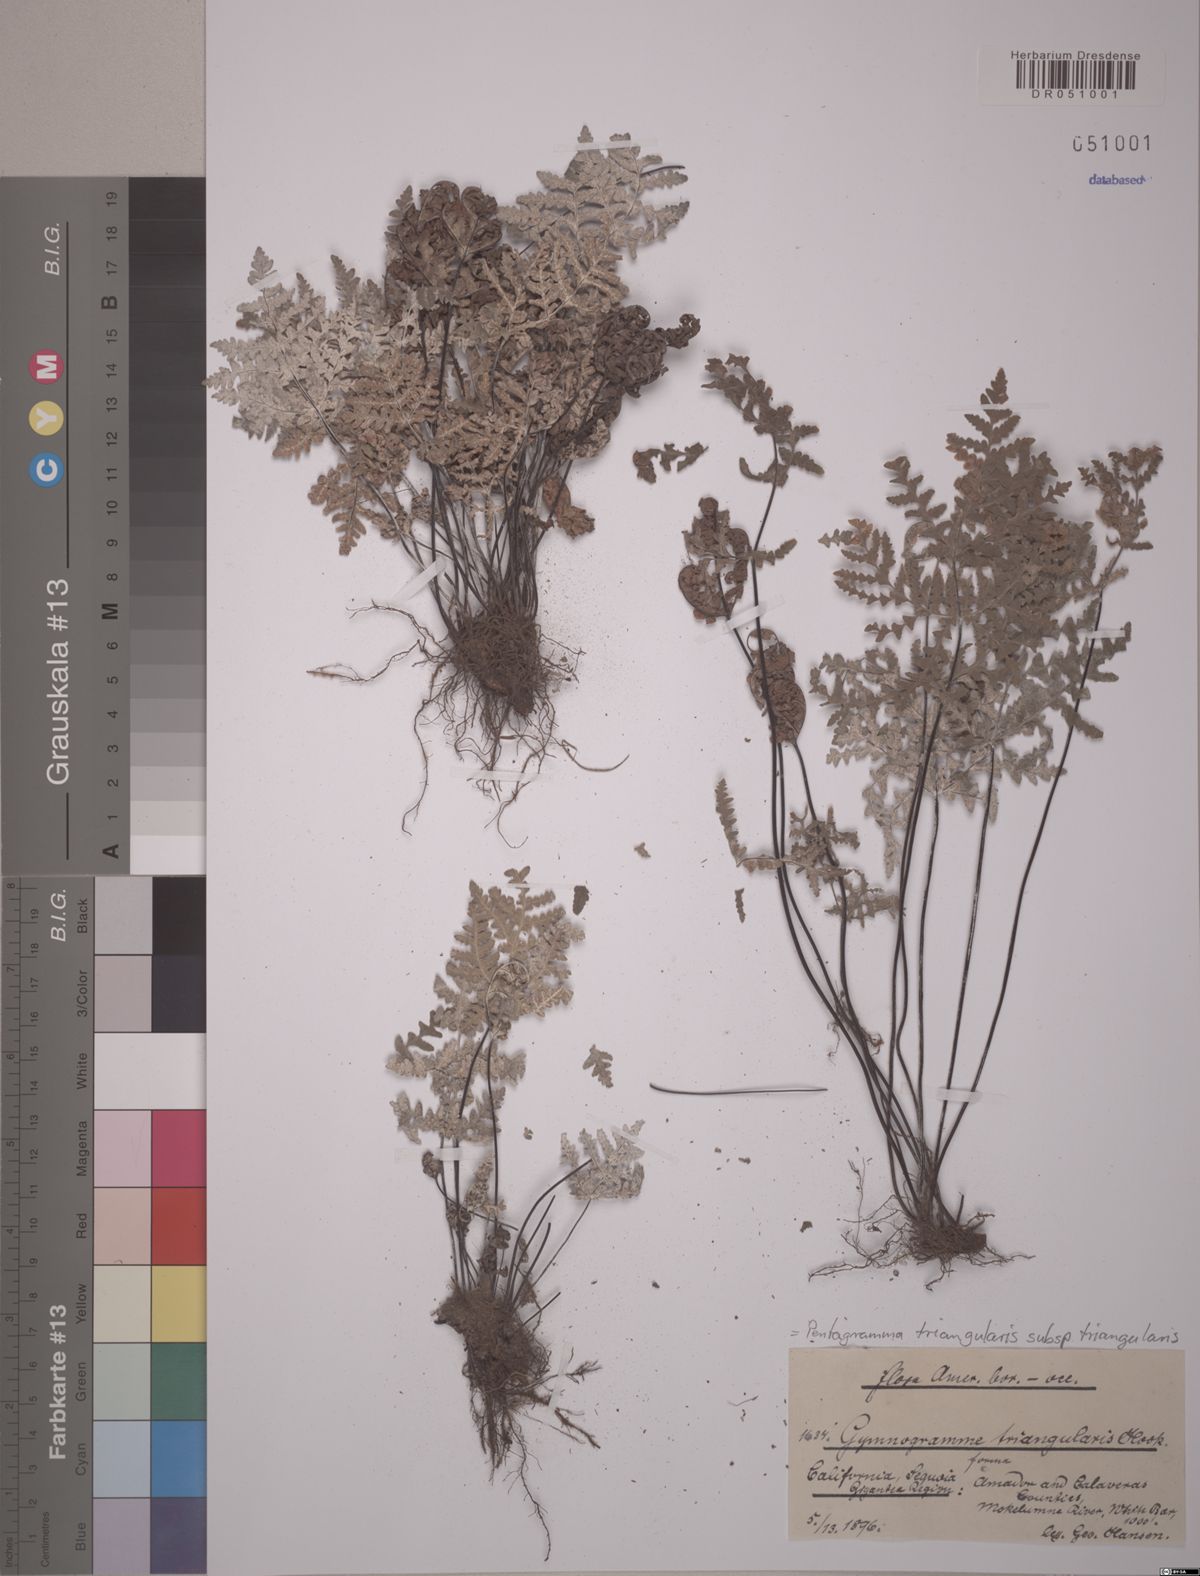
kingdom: Plantae
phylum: Tracheophyta
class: Polypodiopsida
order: Polypodiales
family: Pteridaceae
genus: Pentagramma
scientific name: Pentagramma triangularis
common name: Gold fern
